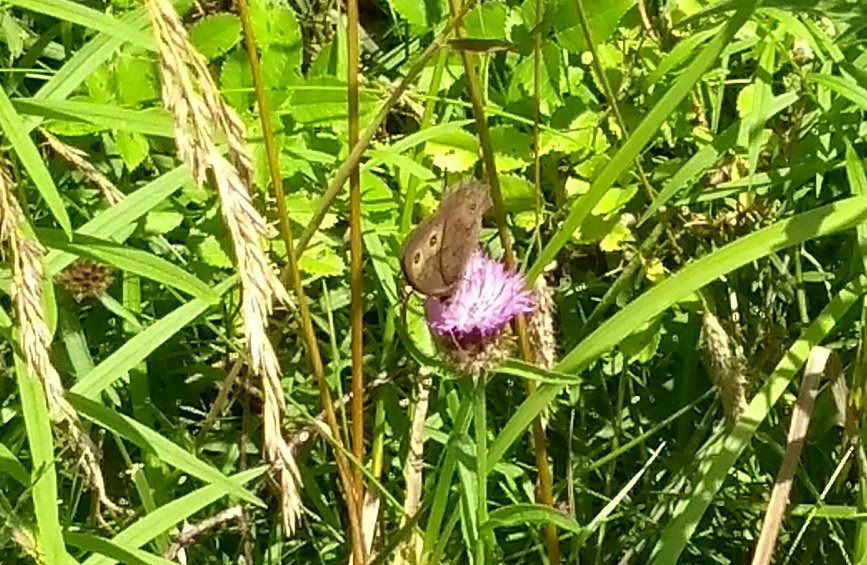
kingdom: Animalia
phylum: Arthropoda
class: Insecta
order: Lepidoptera
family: Nymphalidae
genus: Cercyonis
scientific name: Cercyonis pegala
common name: Common Wood-Nymph
